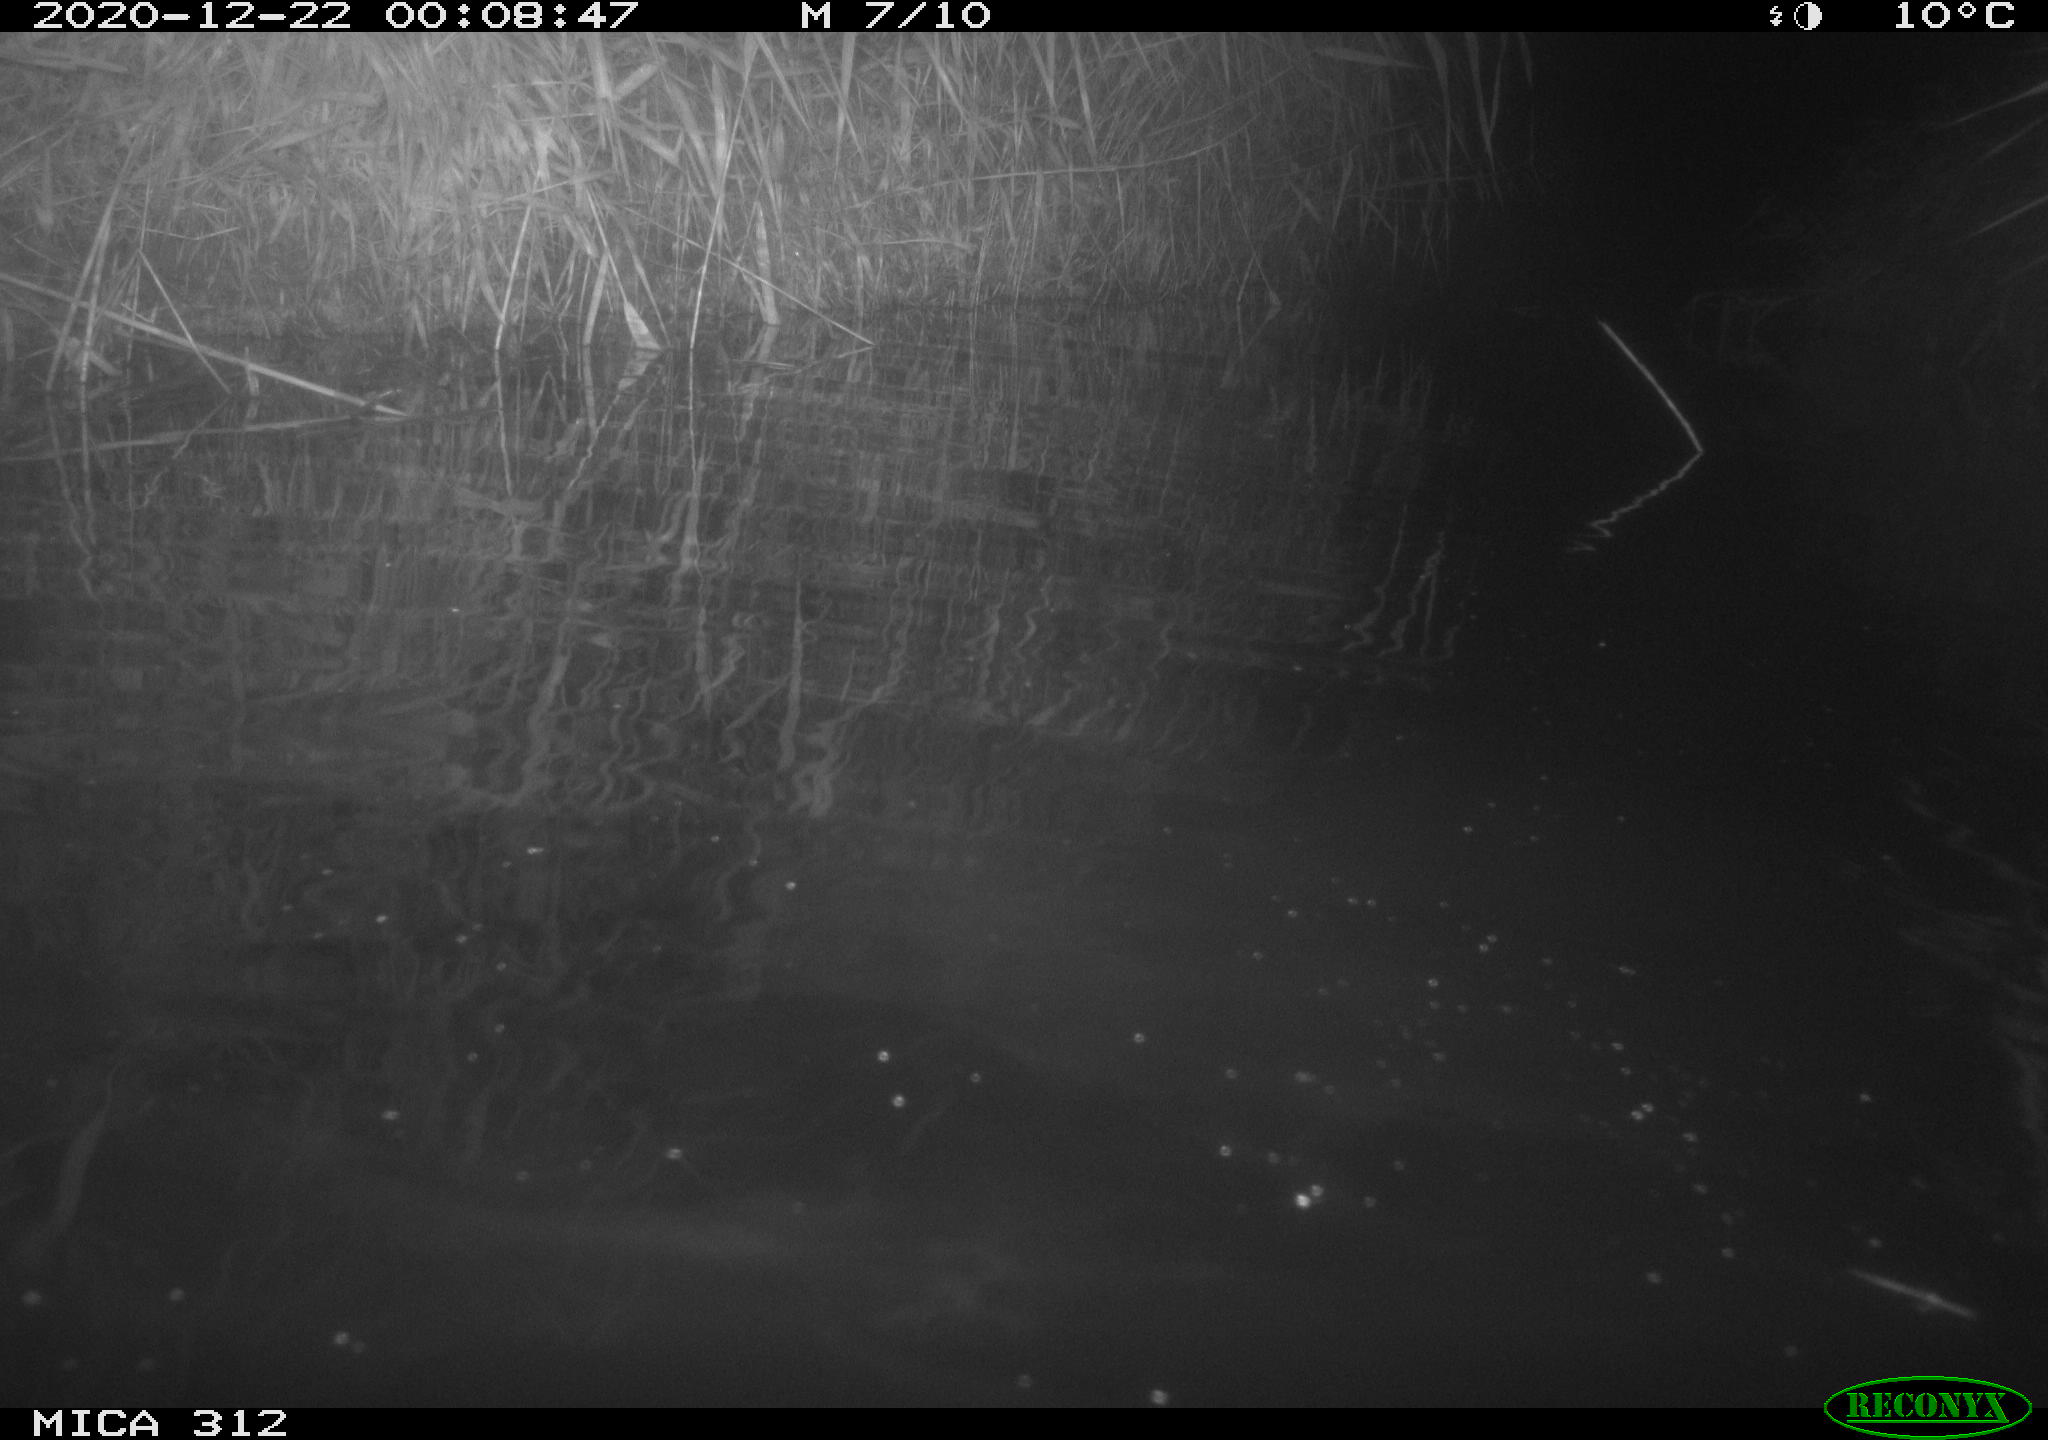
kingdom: Animalia
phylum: Chordata
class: Mammalia
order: Rodentia
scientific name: Rodentia
